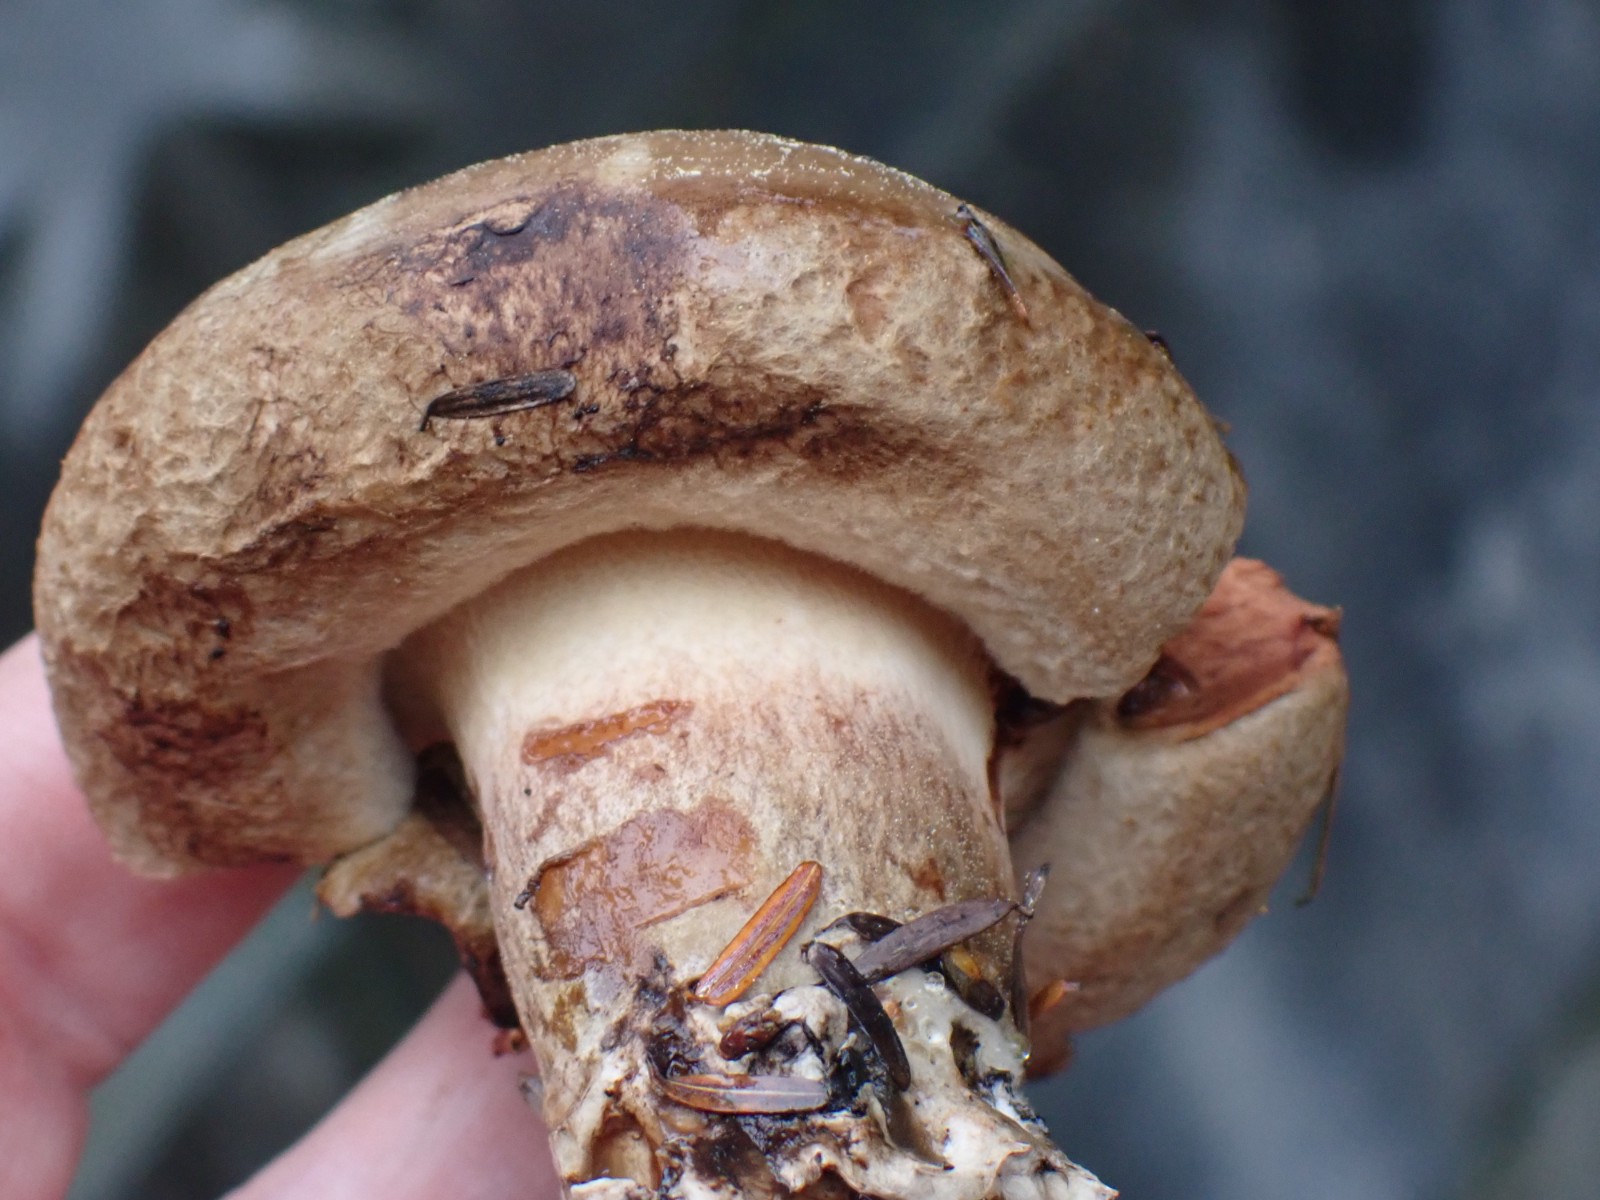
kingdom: Fungi
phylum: Basidiomycota
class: Agaricomycetes
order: Boletales
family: Paxillaceae
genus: Paxillus
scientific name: Paxillus
